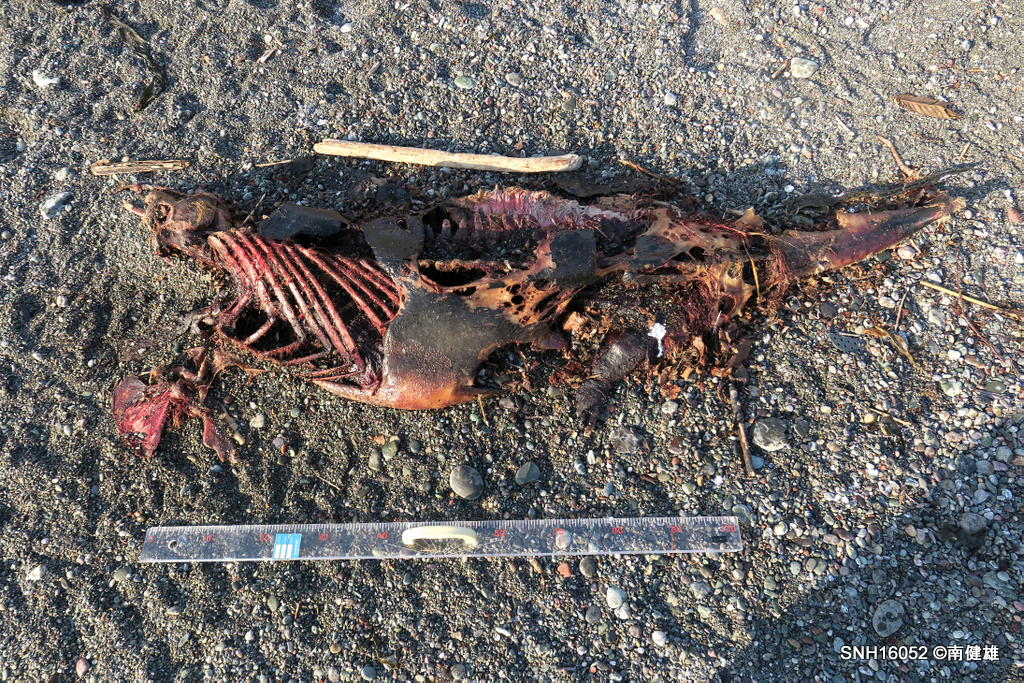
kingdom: Animalia
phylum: Chordata
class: Mammalia
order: Cetacea
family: Phocoenidae
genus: Phocoena
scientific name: Phocoena phocoena
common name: Harbour porpoise
